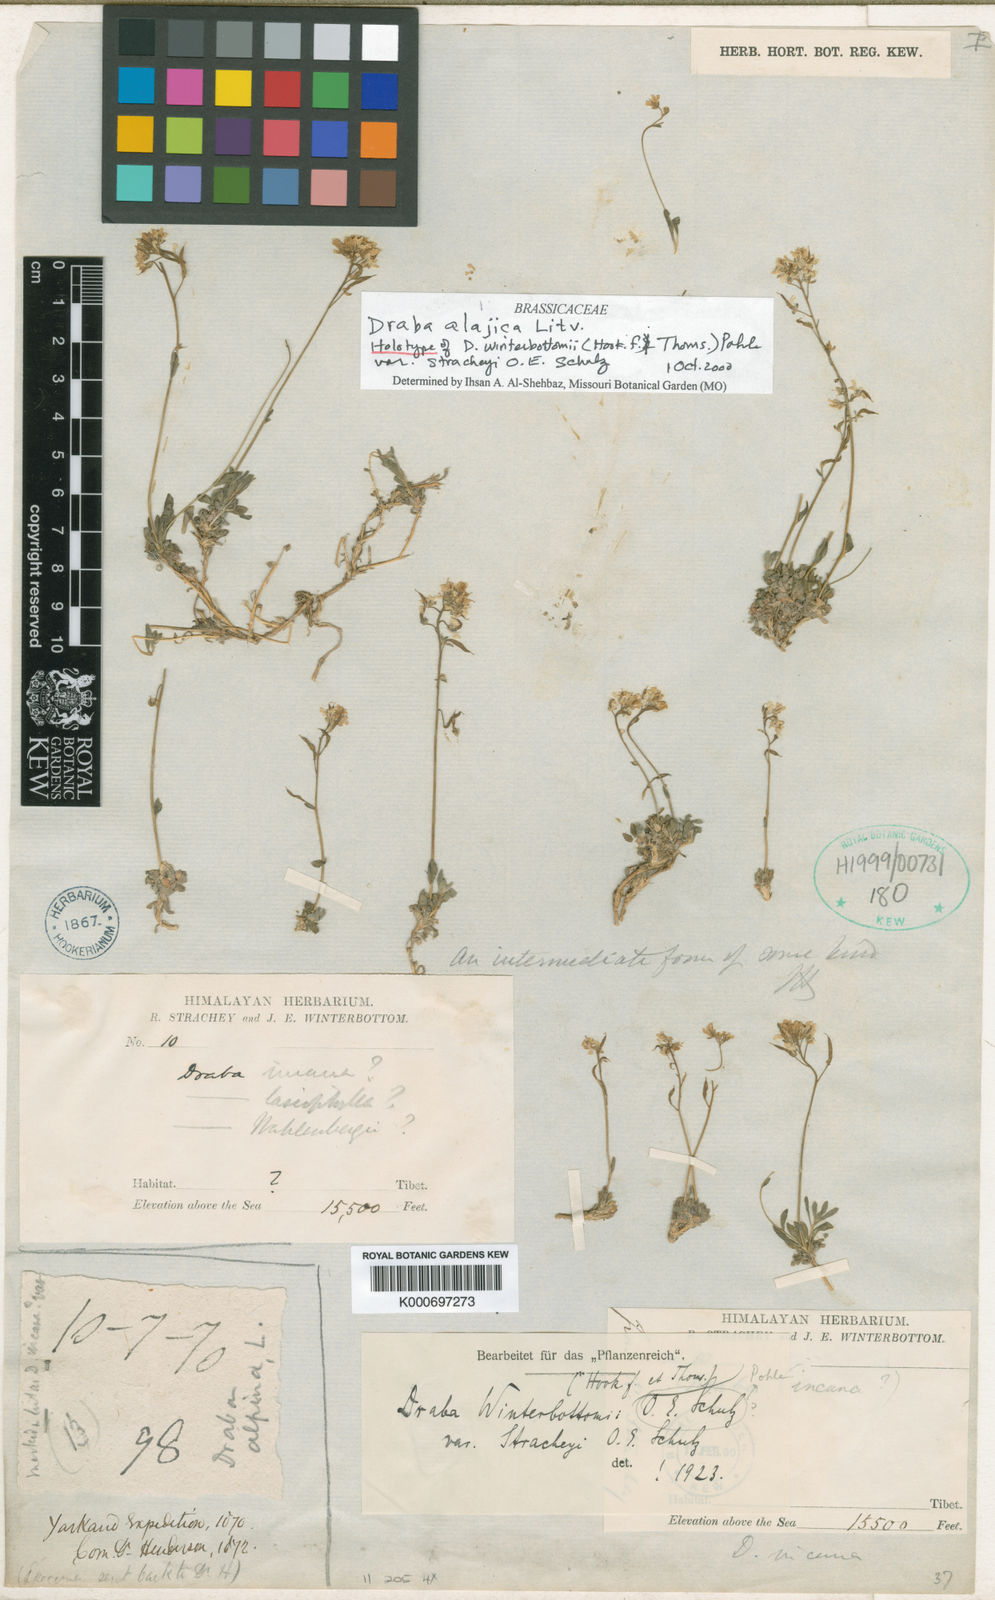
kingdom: Plantae
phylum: Tracheophyta
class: Magnoliopsida
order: Brassicales
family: Brassicaceae
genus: Draba
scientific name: Draba alajica
